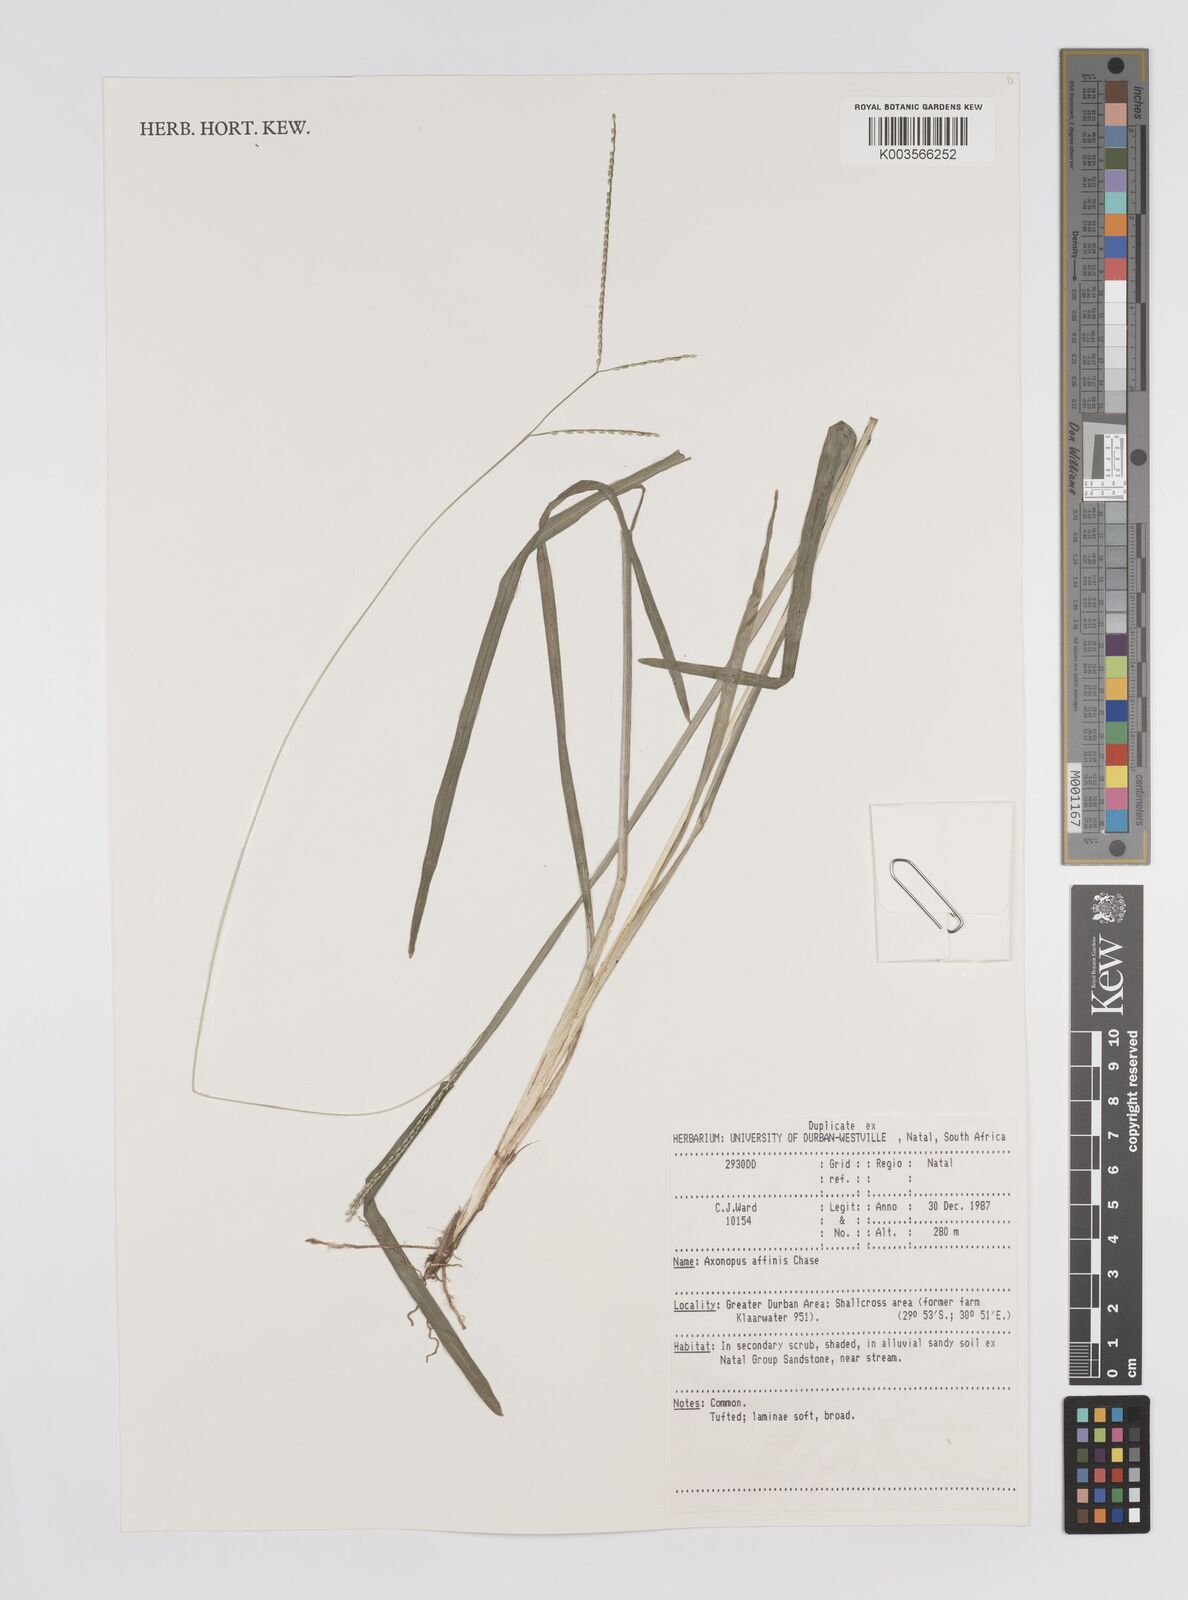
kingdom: Plantae
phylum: Tracheophyta
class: Liliopsida
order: Poales
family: Poaceae
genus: Axonopus
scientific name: Axonopus fissifolius
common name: Common carpetgrass
